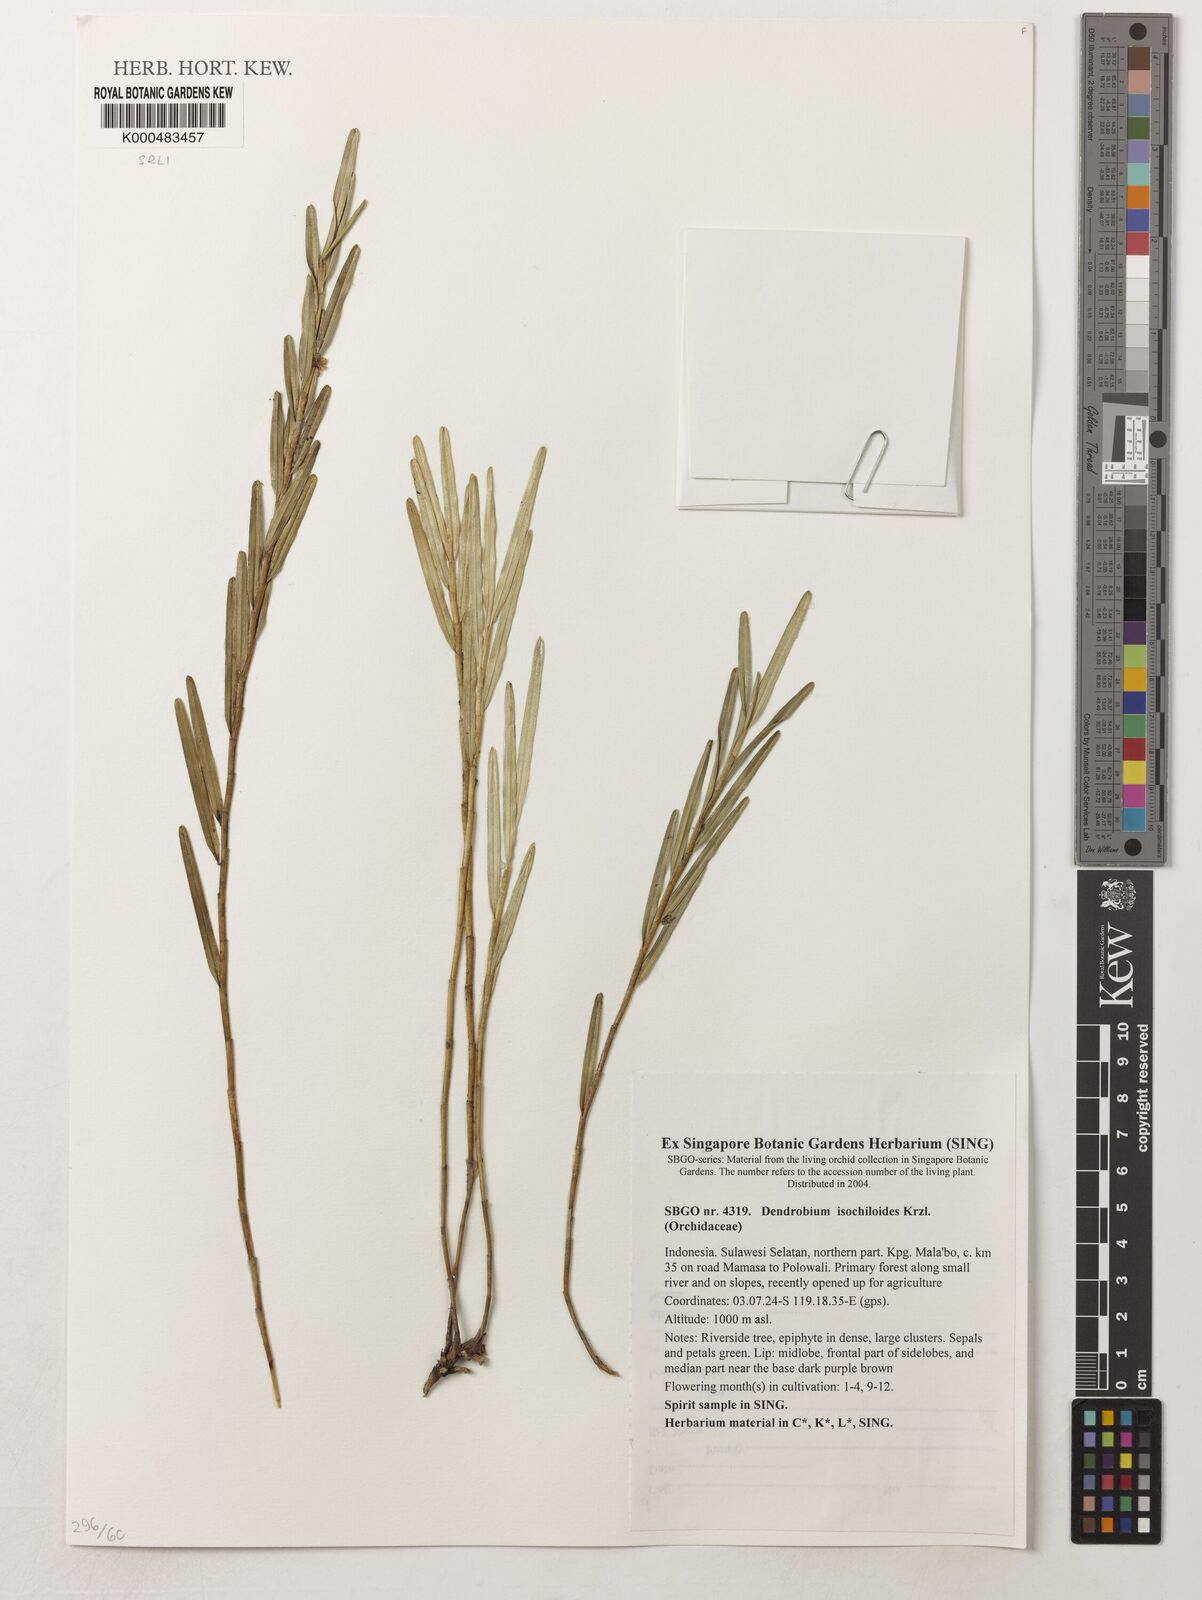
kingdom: Plantae
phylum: Tracheophyta
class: Liliopsida
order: Asparagales
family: Orchidaceae
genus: Dendrobium
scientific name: Dendrobium isochiloides
